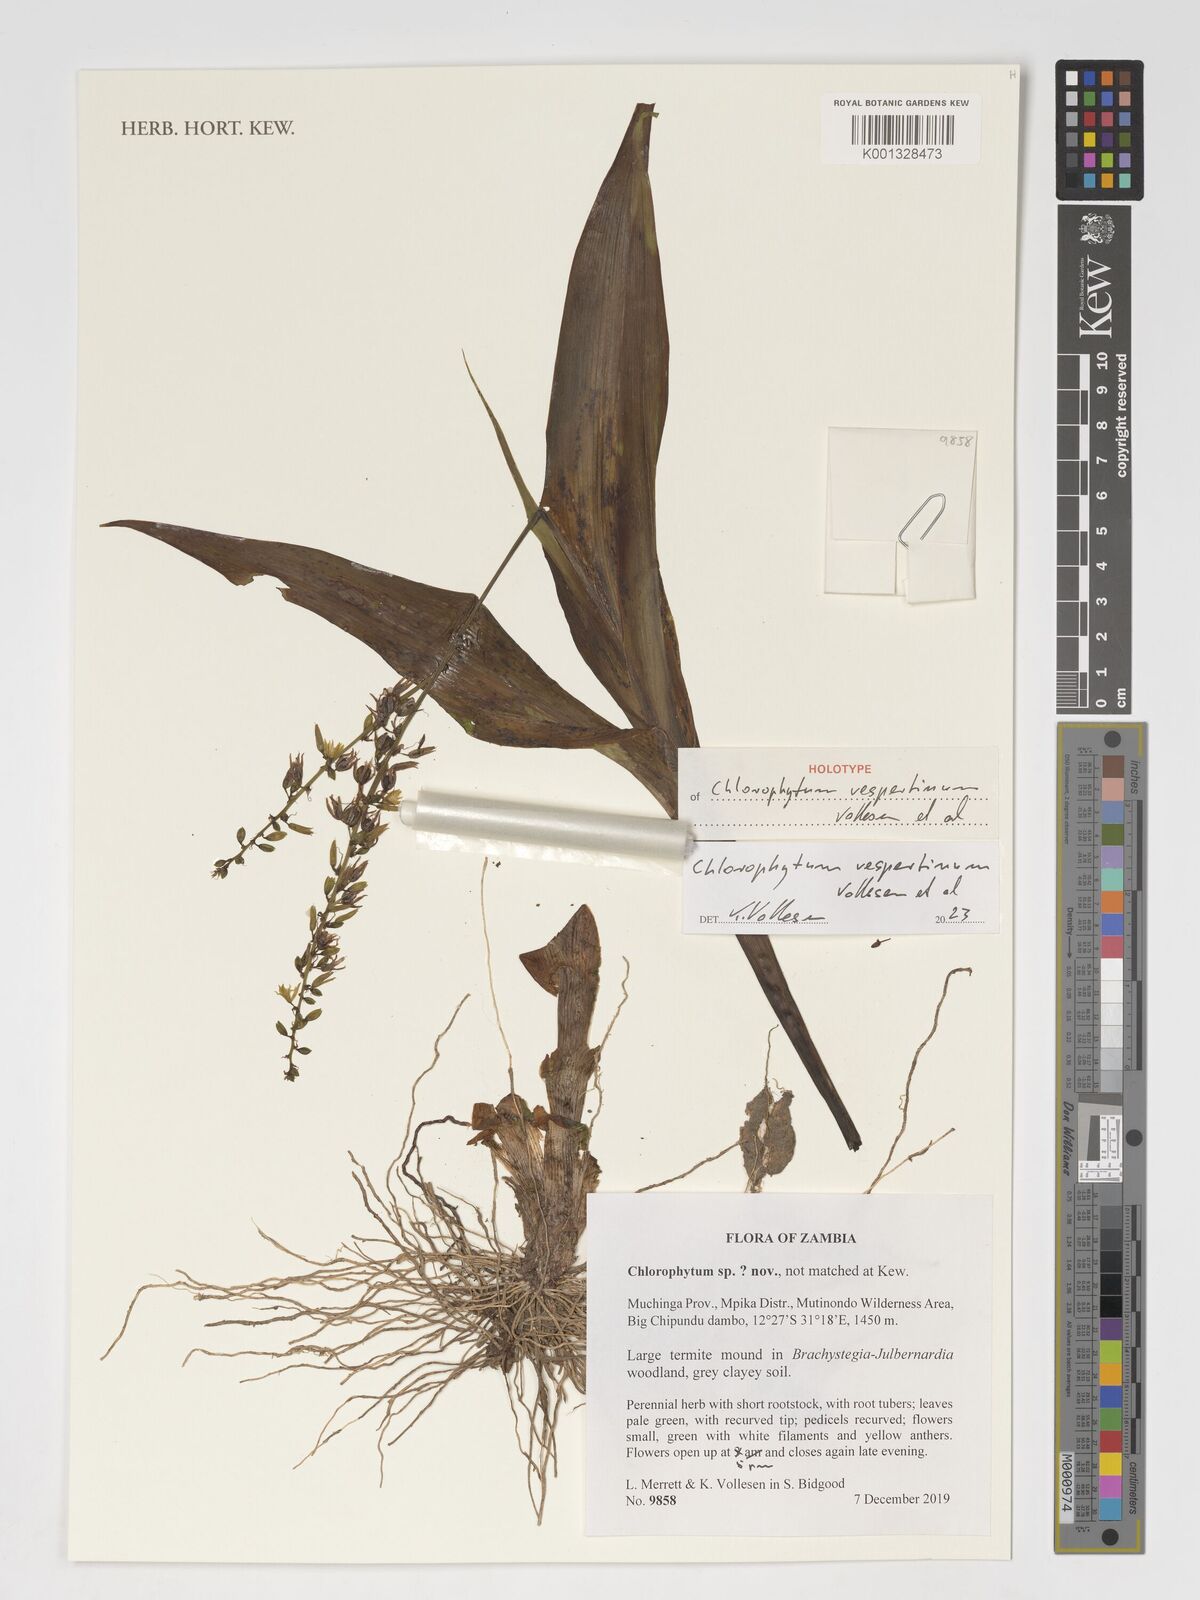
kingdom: Plantae
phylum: Tracheophyta
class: Liliopsida
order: Asparagales
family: Asparagaceae
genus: Chlorophytum
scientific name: Chlorophytum
